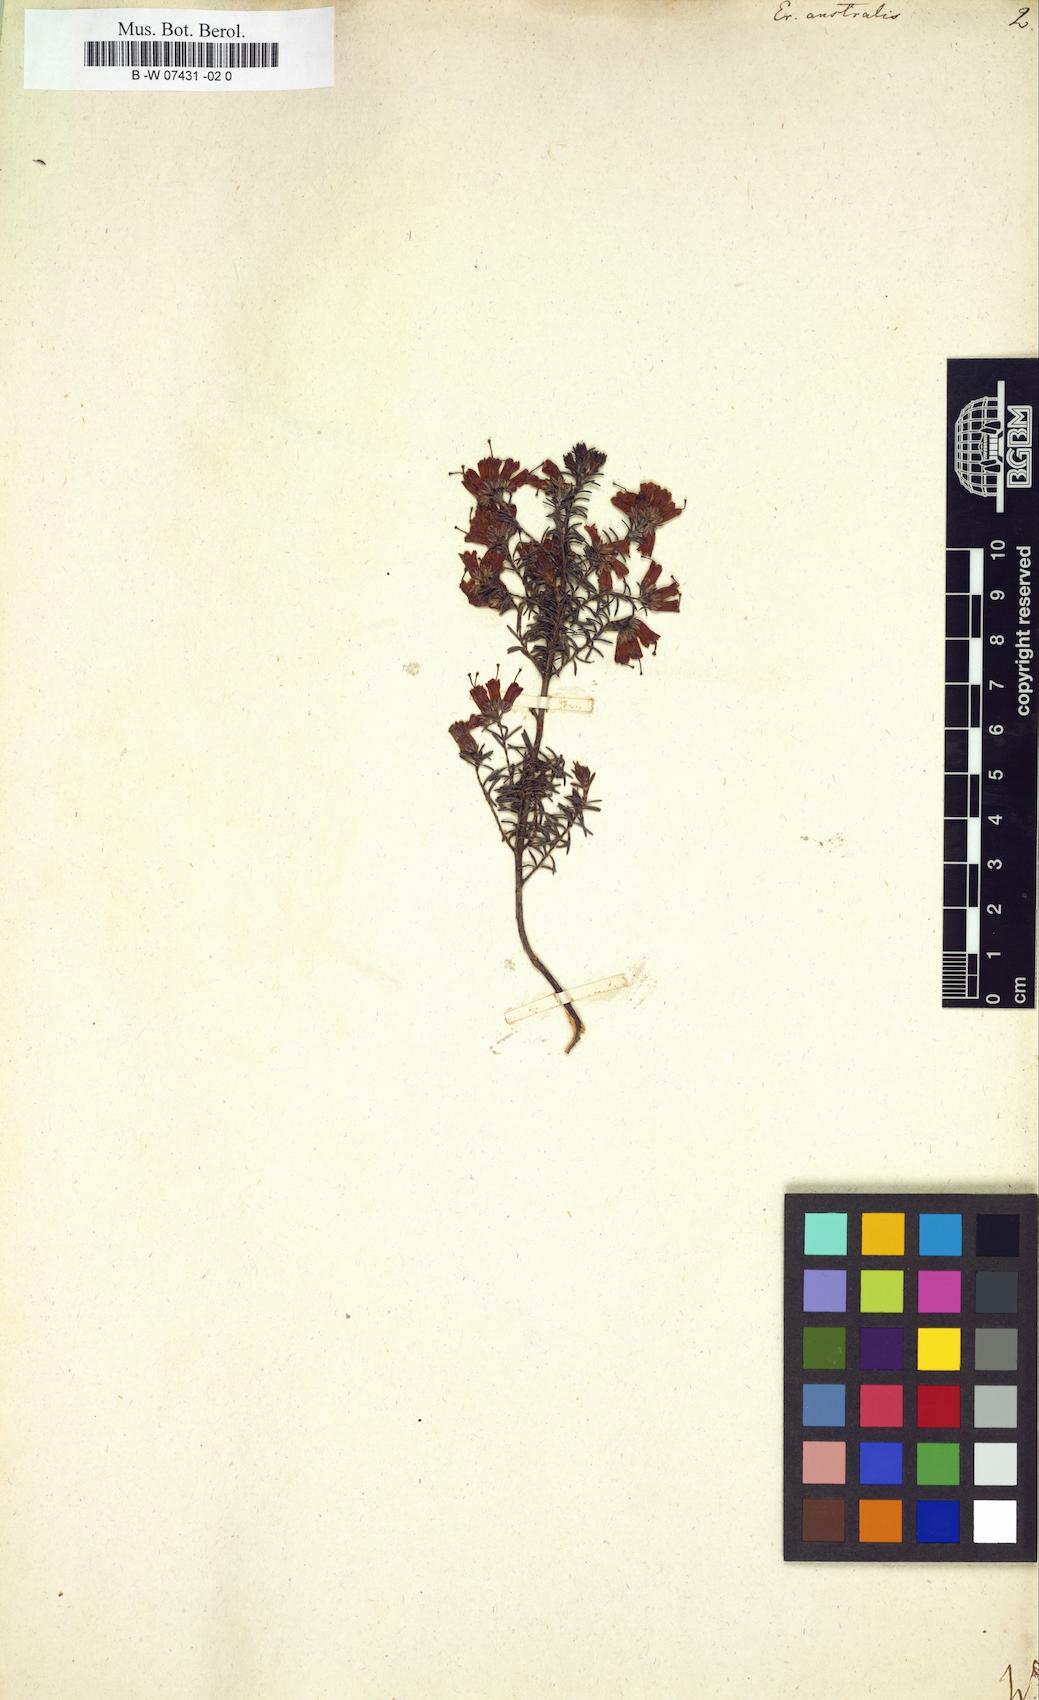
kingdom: Plantae
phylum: Tracheophyta
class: Magnoliopsida
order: Ericales
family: Ericaceae
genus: Erica
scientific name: Erica australis
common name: Spanish heath
